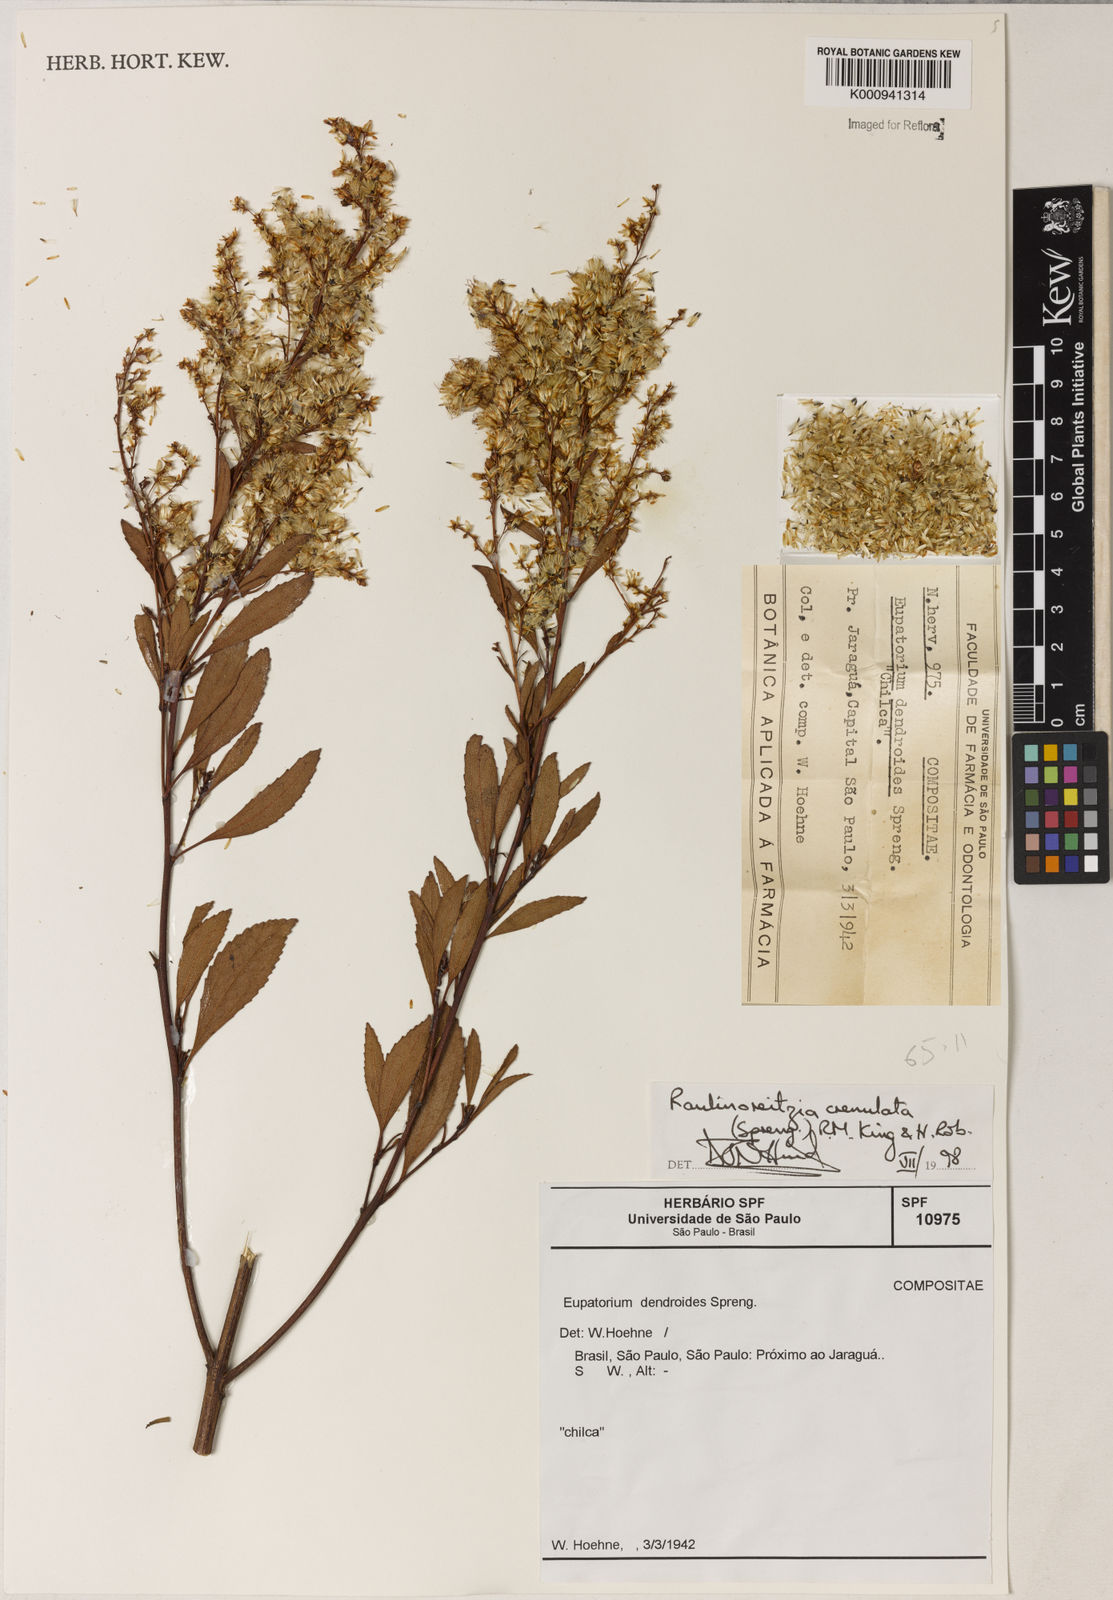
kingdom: Plantae
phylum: Tracheophyta
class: Magnoliopsida
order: Asterales
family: Asteraceae
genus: Raulinoreitzia
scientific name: Raulinoreitzia crenulata
